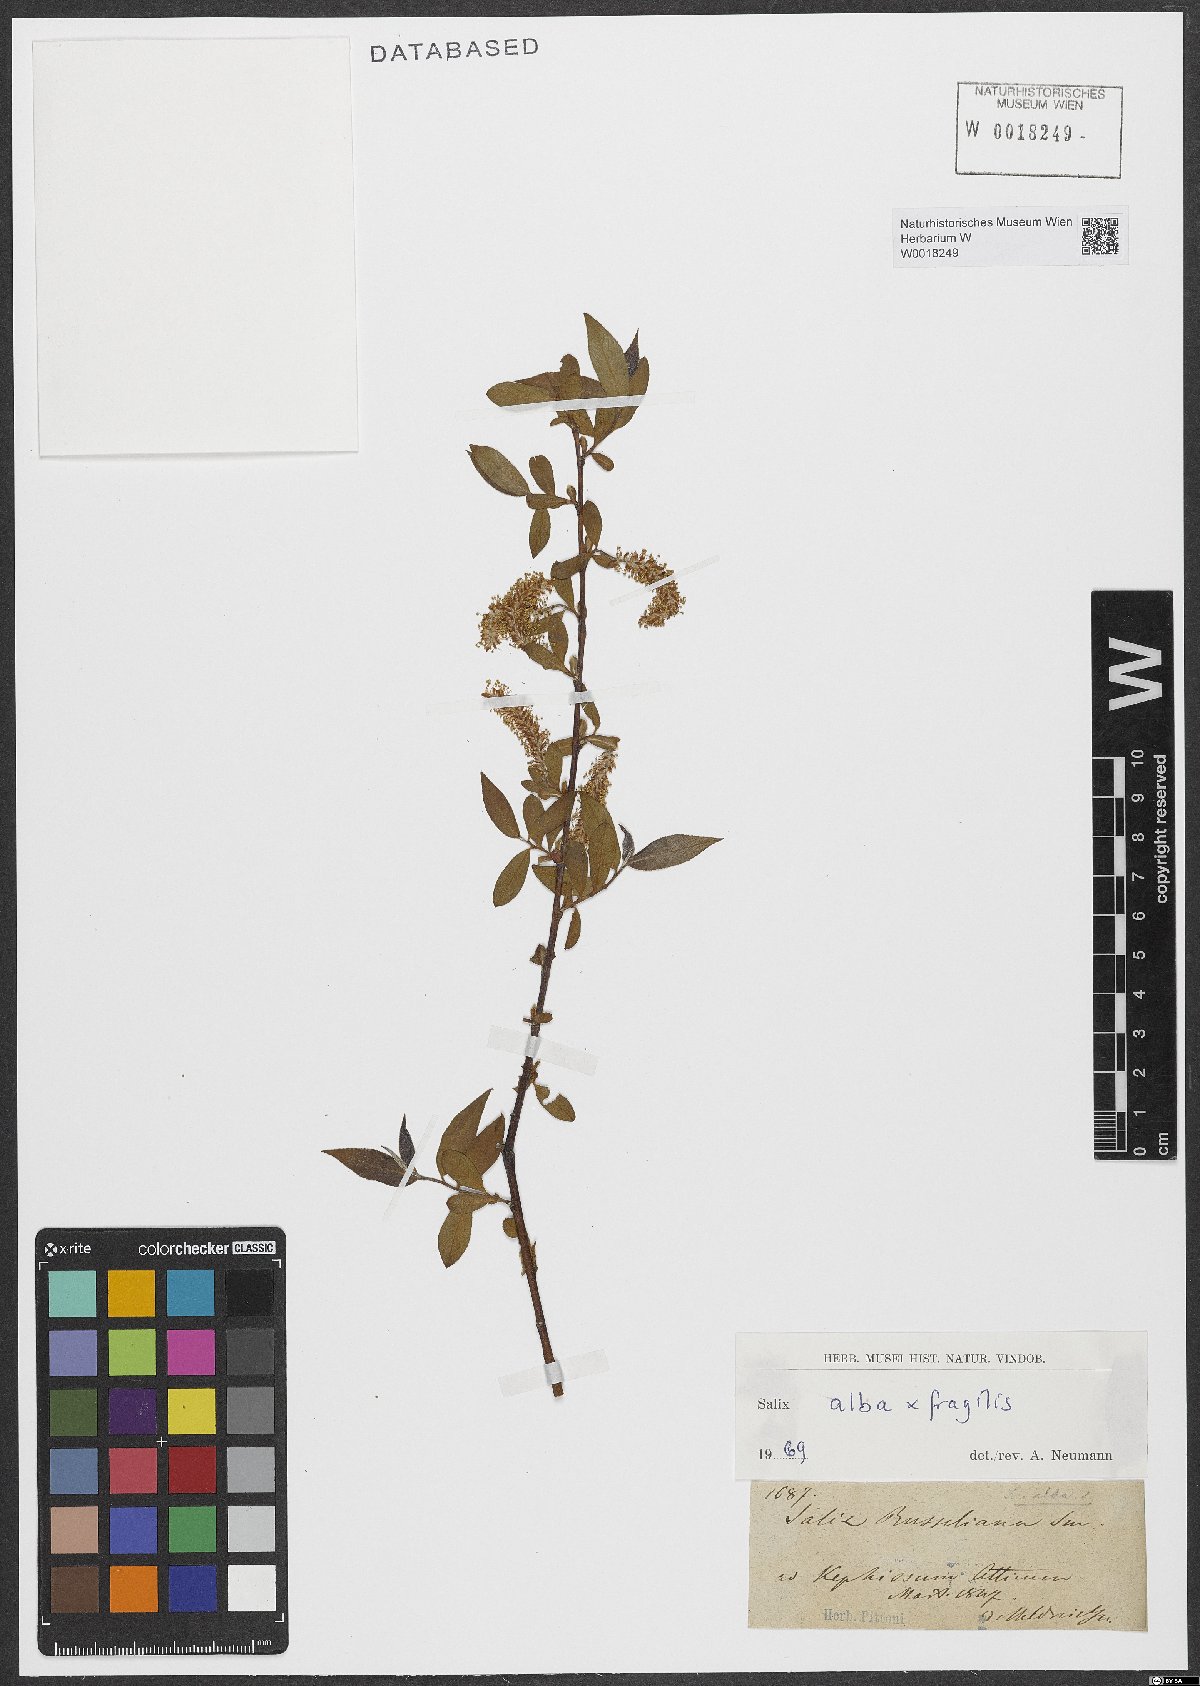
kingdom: Plantae
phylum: Tracheophyta
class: Magnoliopsida
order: Malpighiales
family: Salicaceae
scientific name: Salicaceae
